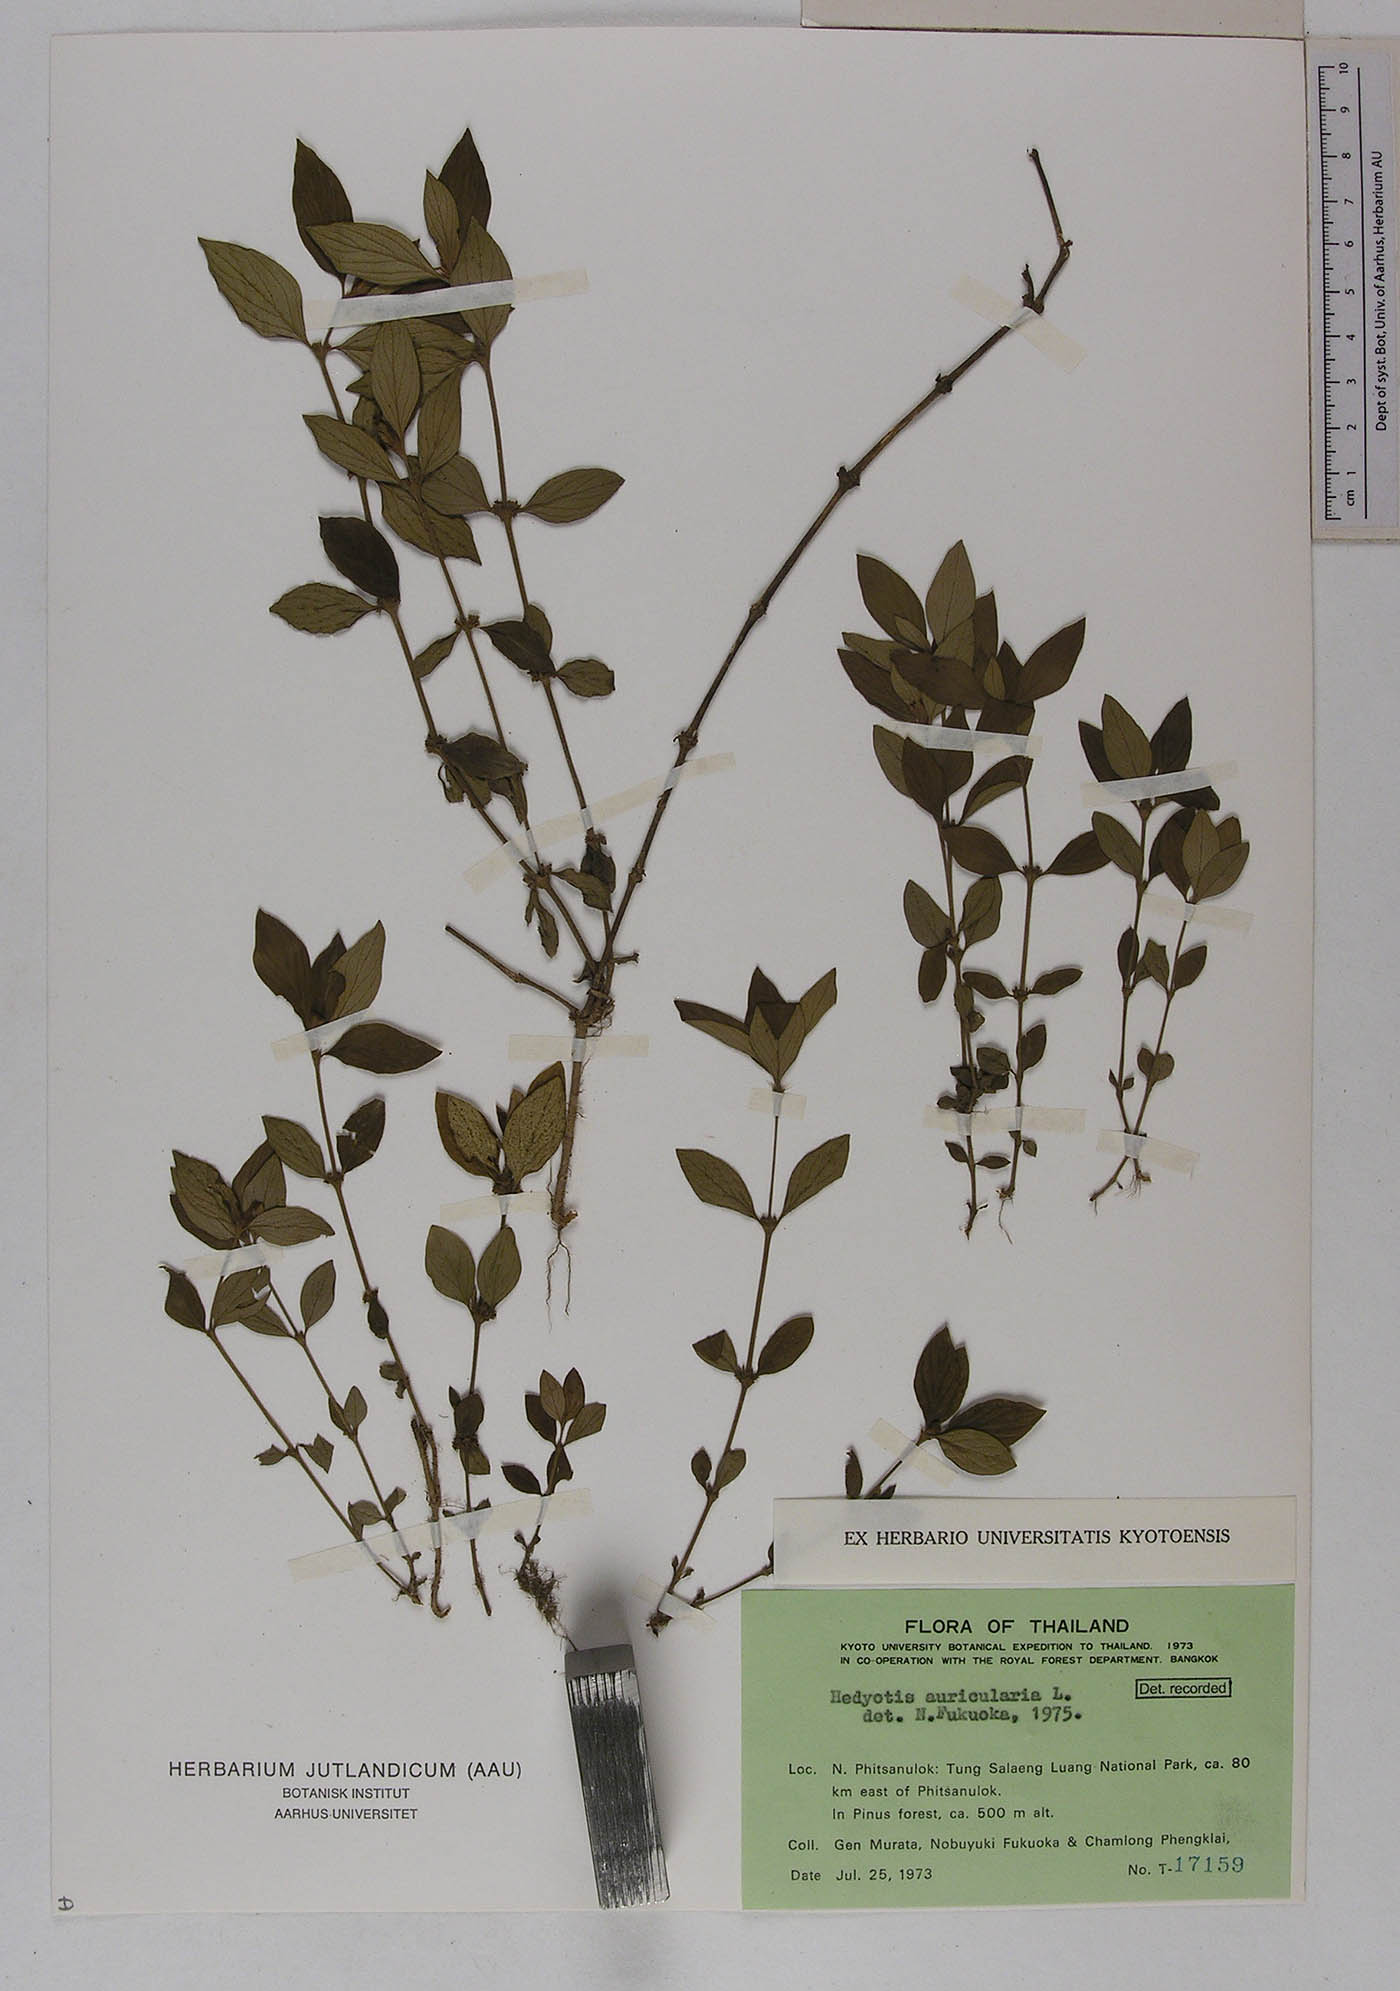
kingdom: Plantae
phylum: Tracheophyta
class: Magnoliopsida
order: Gentianales
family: Rubiaceae
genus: Exallage
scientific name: Exallage auricularia
